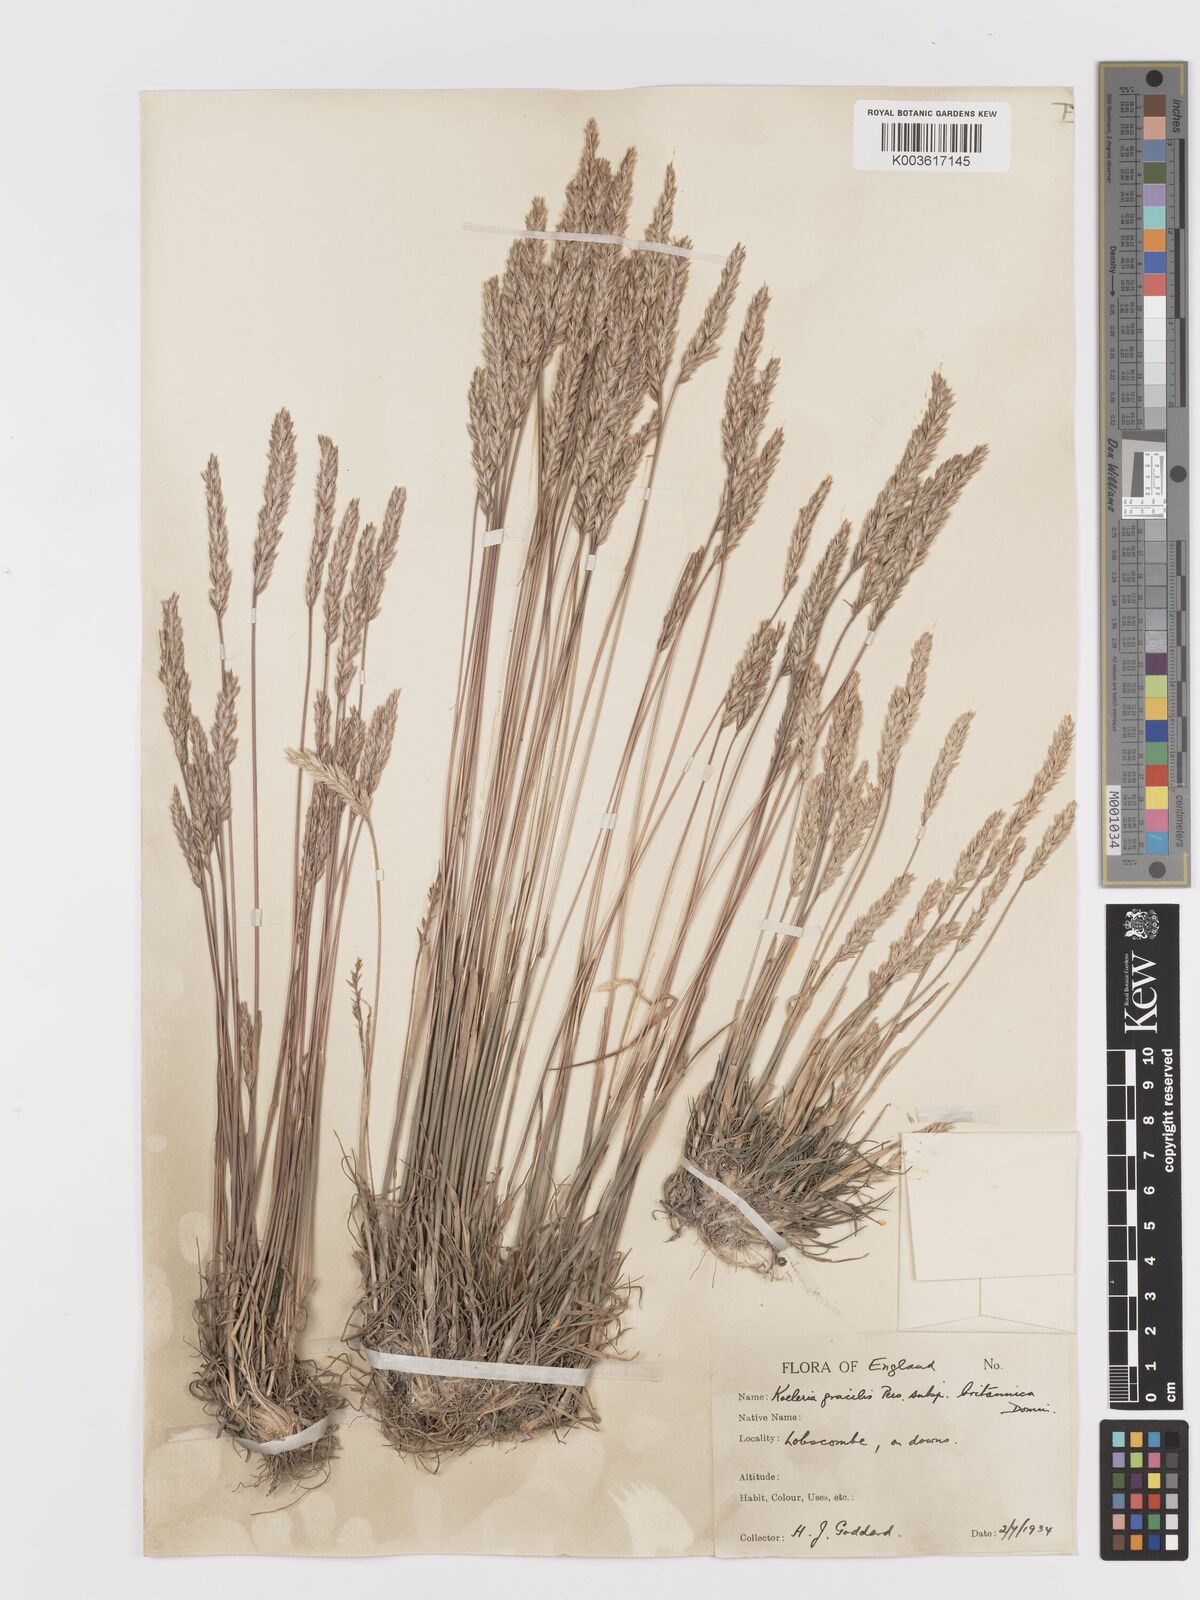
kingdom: Plantae
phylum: Tracheophyta
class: Liliopsida
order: Poales
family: Poaceae
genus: Koeleria
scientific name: Koeleria macrantha
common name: Crested hair-grass
